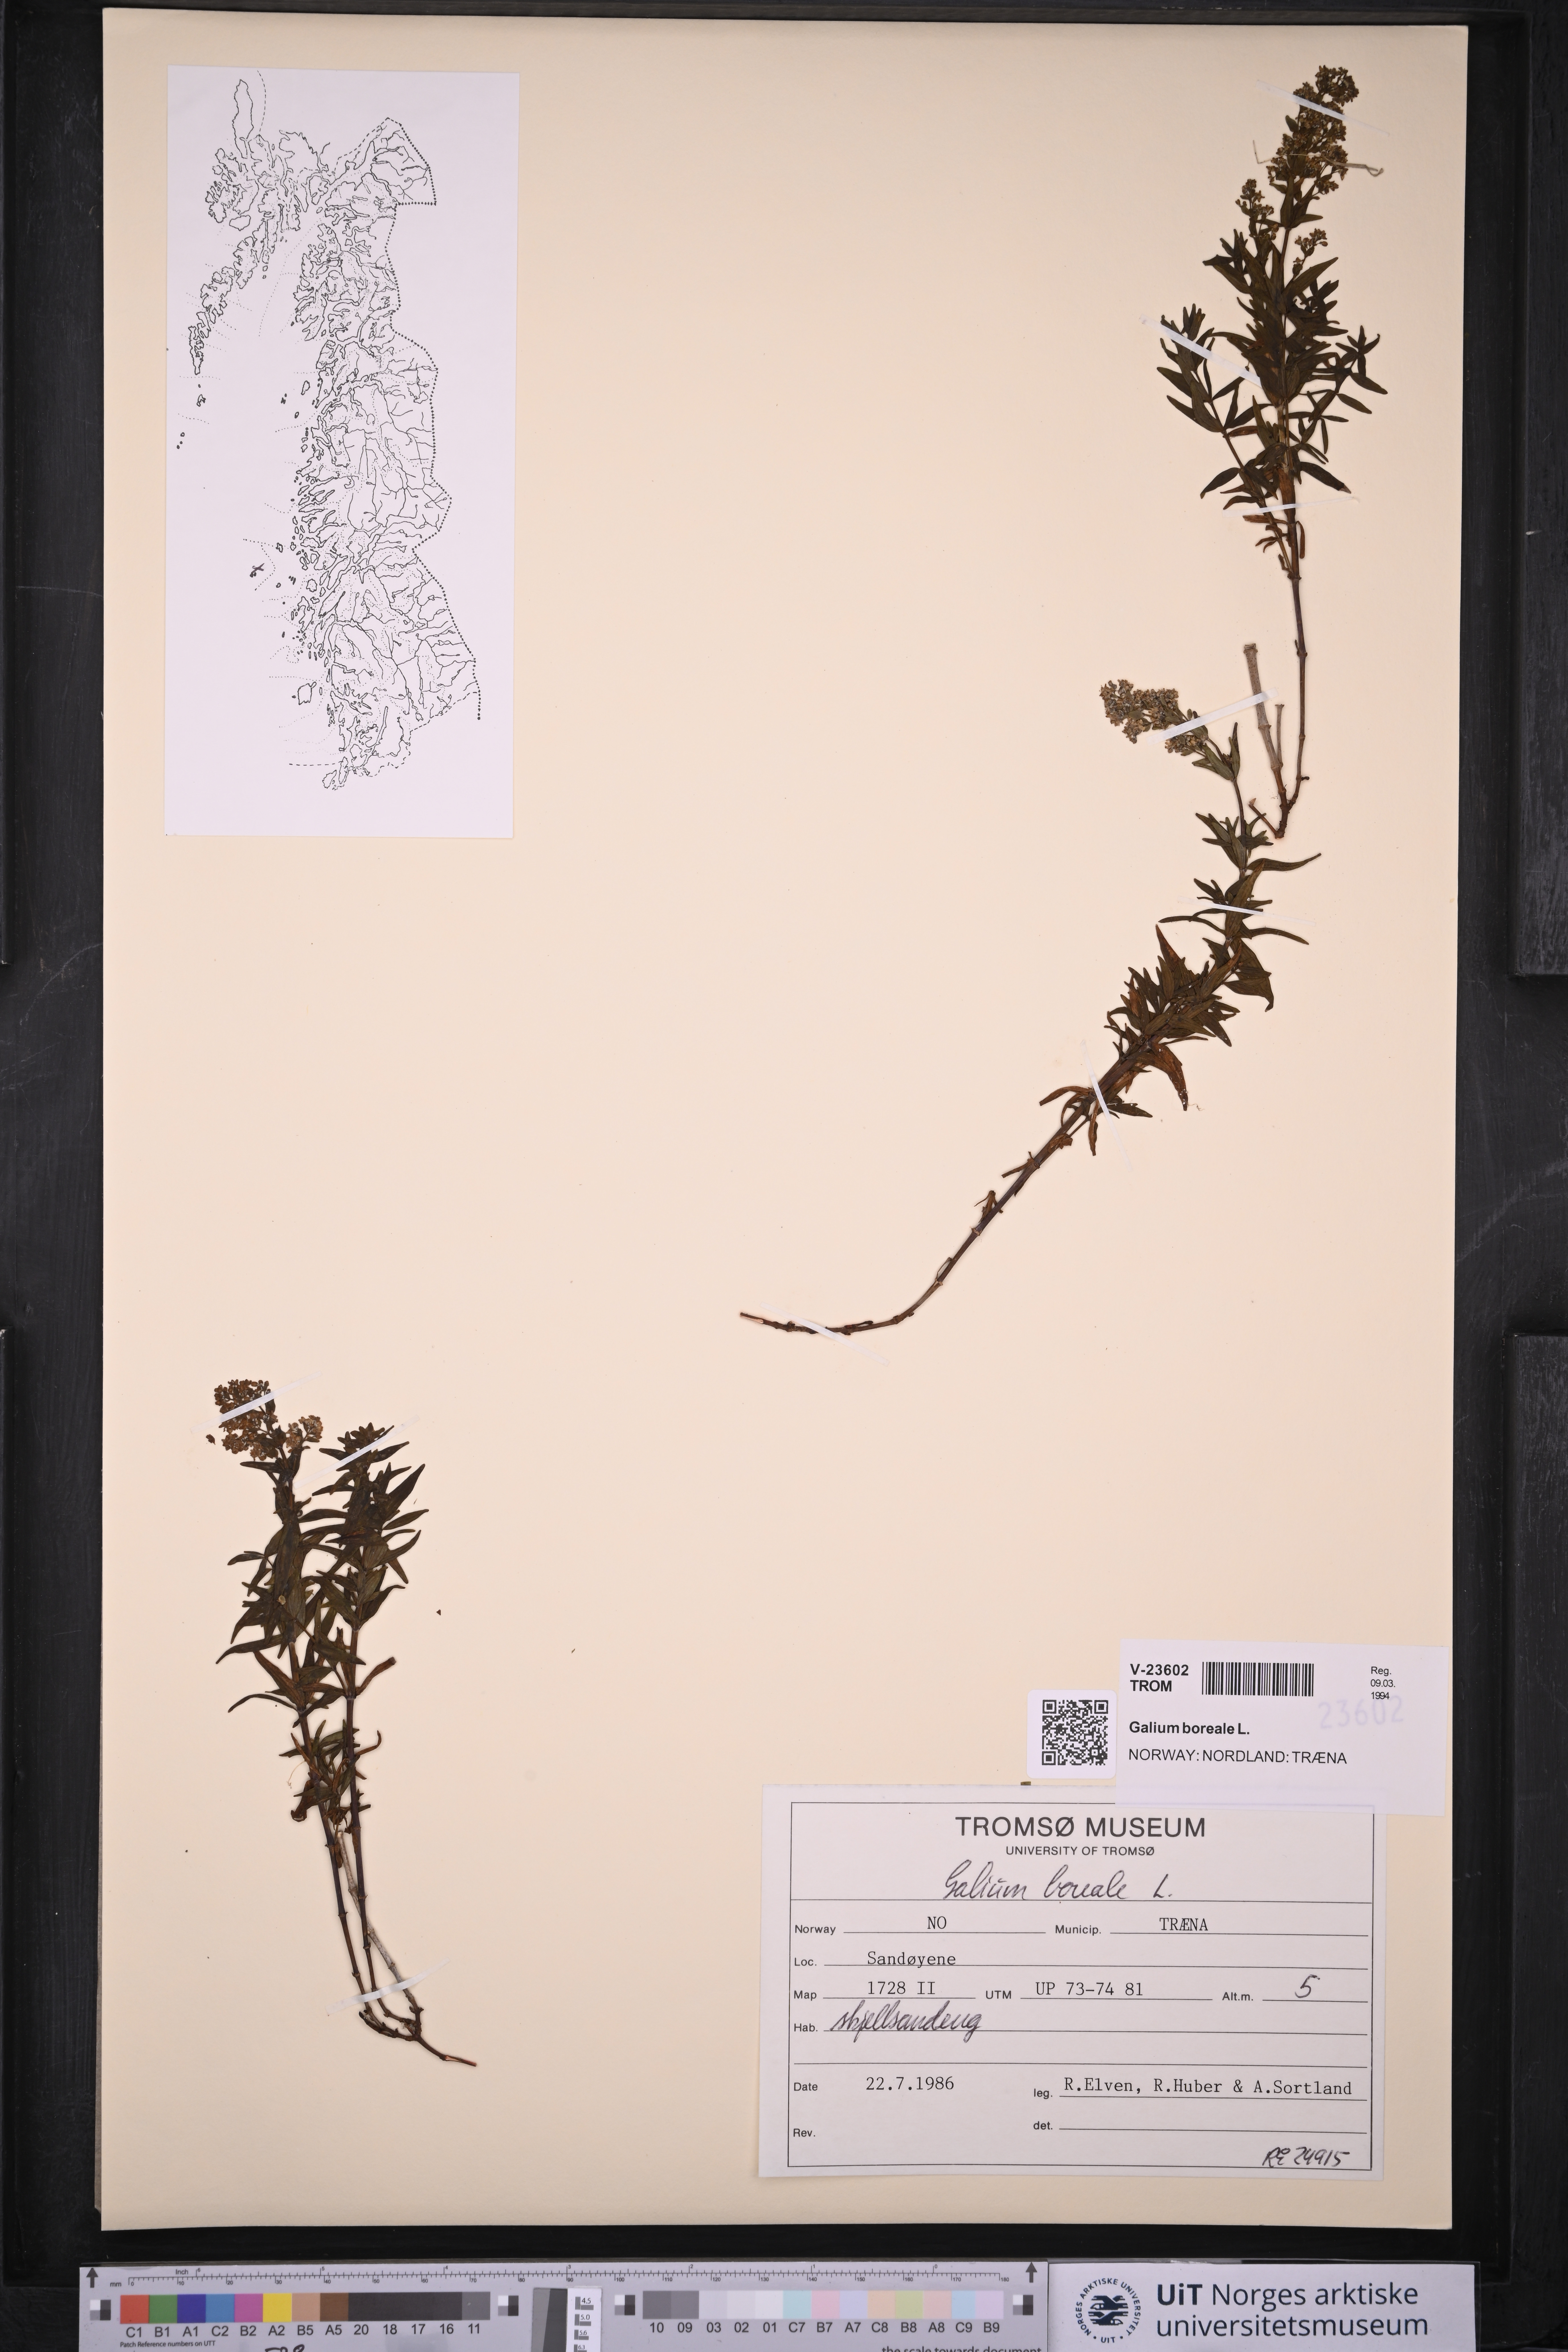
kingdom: Plantae
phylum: Tracheophyta
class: Magnoliopsida
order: Gentianales
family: Rubiaceae
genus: Galium
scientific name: Galium boreale
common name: Northern bedstraw
